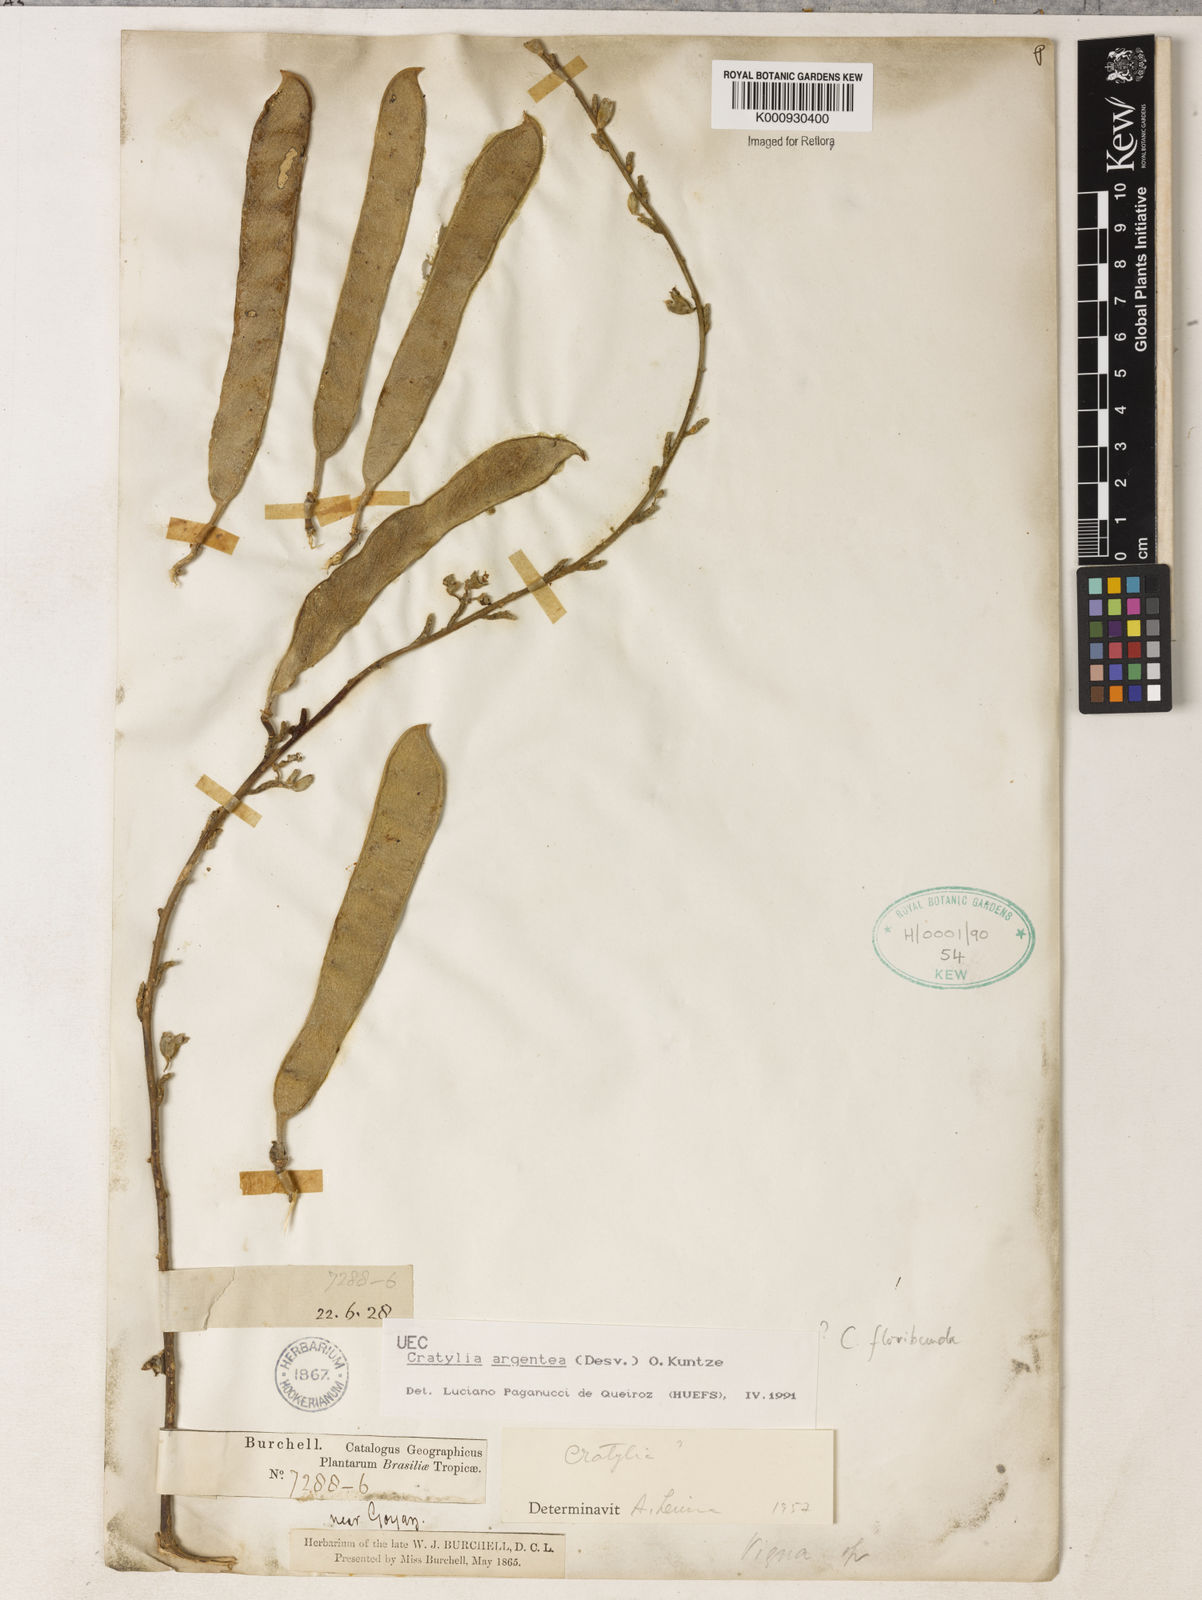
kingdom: Plantae
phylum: Tracheophyta
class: Magnoliopsida
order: Fabales
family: Fabaceae
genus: Cratylia
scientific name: Cratylia argentea
